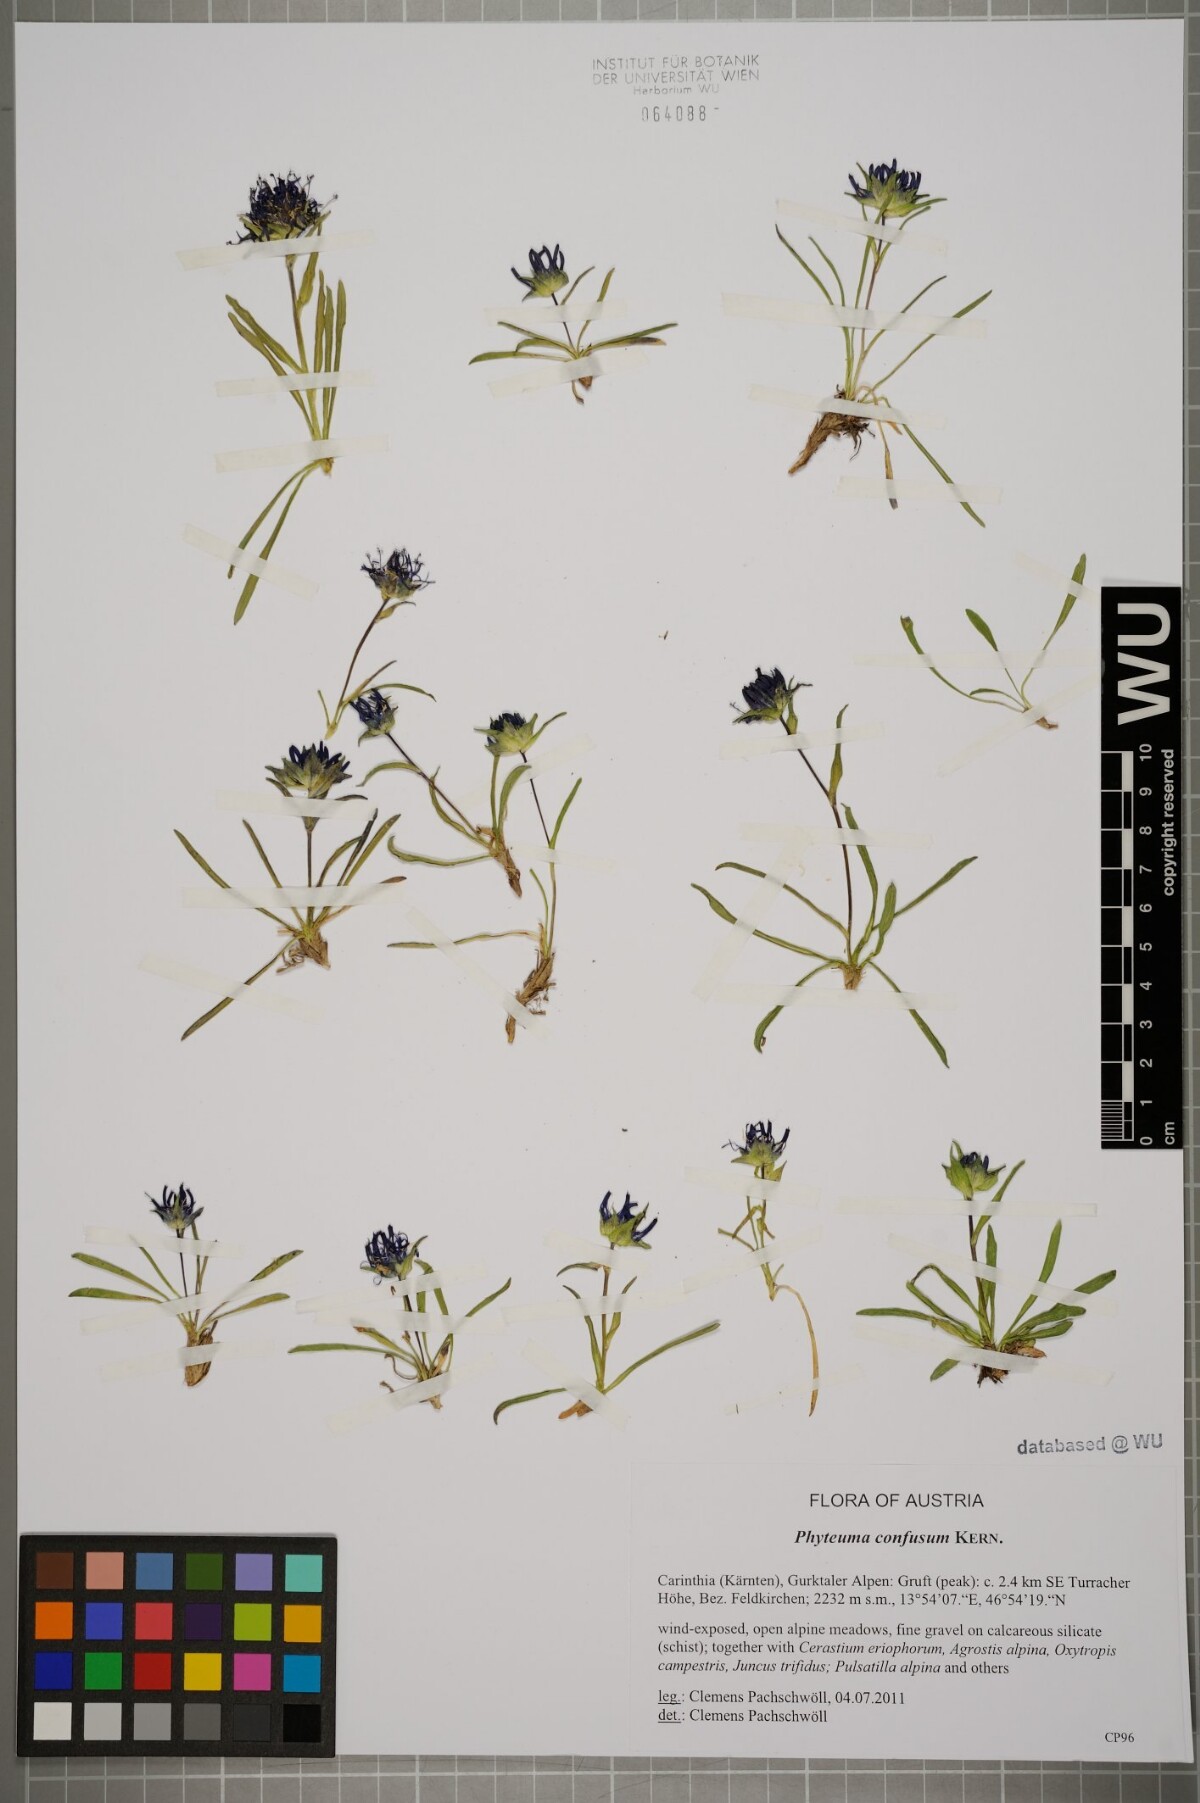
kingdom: Plantae
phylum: Tracheophyta
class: Magnoliopsida
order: Asterales
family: Campanulaceae
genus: Phyteuma
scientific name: Phyteuma confusum
